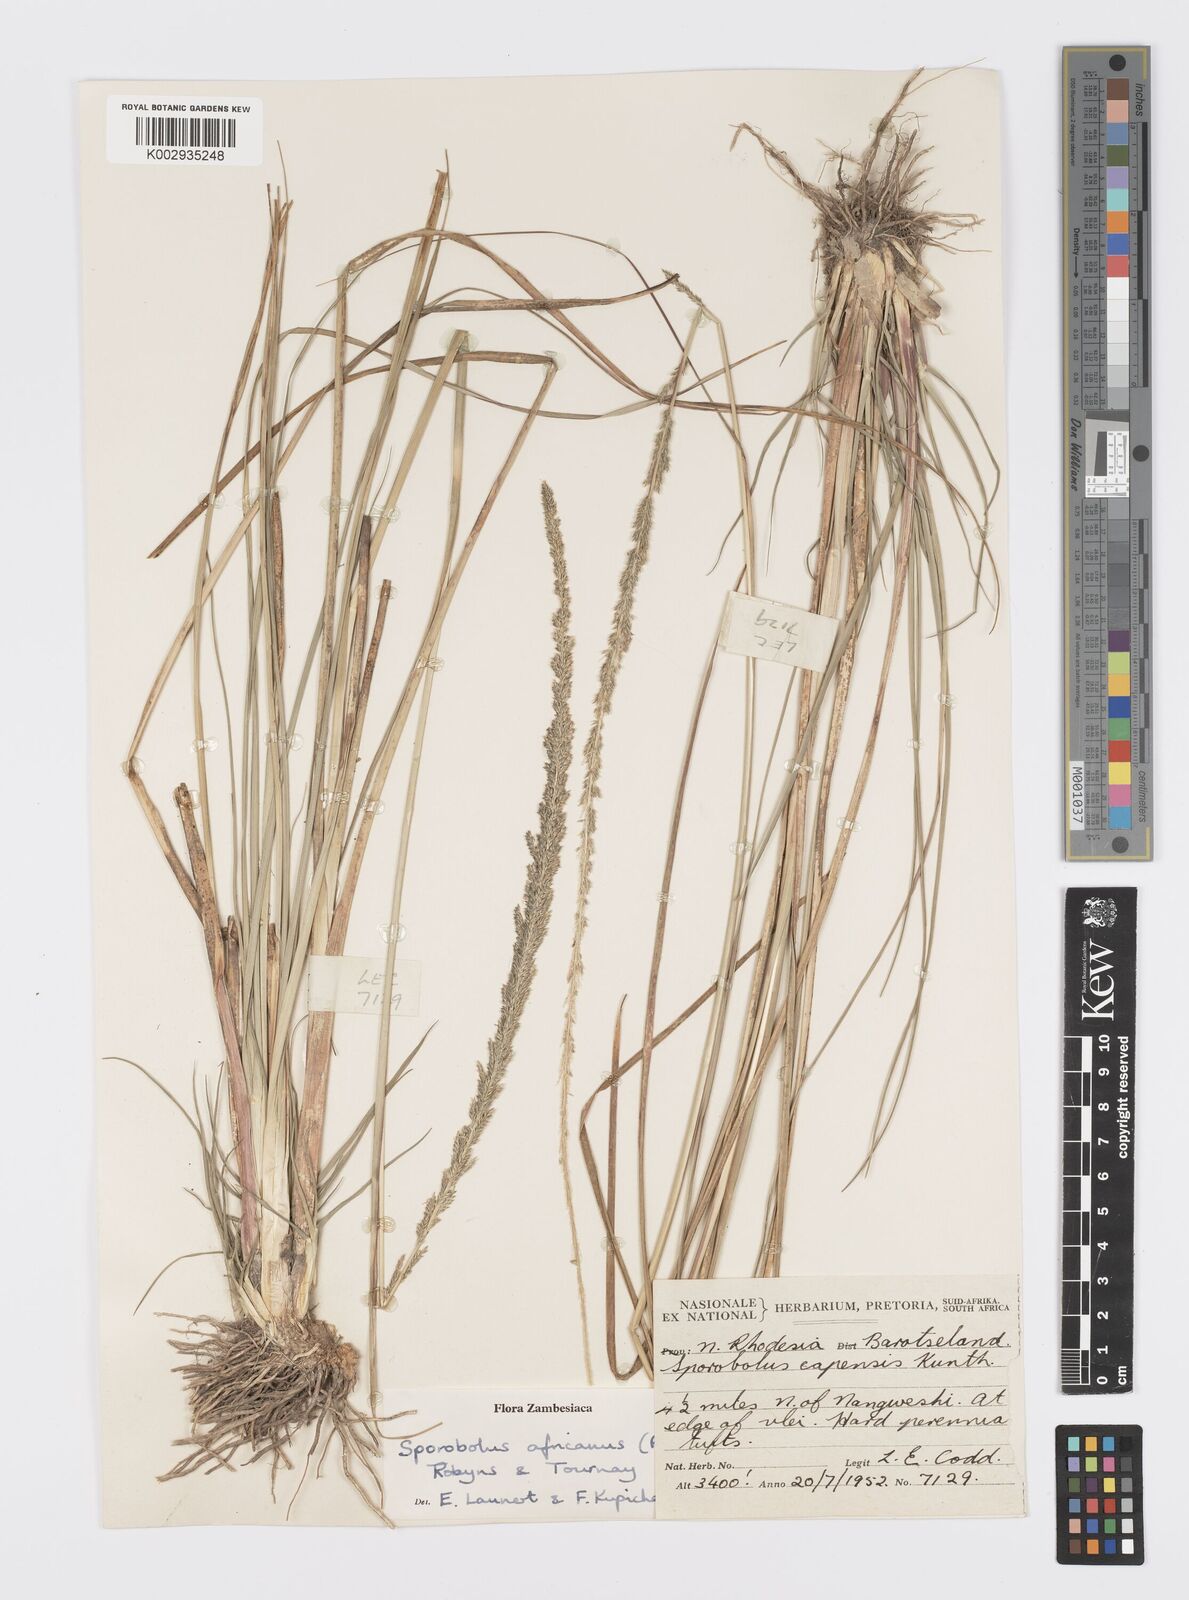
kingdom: Plantae
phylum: Tracheophyta
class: Liliopsida
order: Poales
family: Poaceae
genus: Sporobolus
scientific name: Sporobolus africanus
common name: African dropseed
